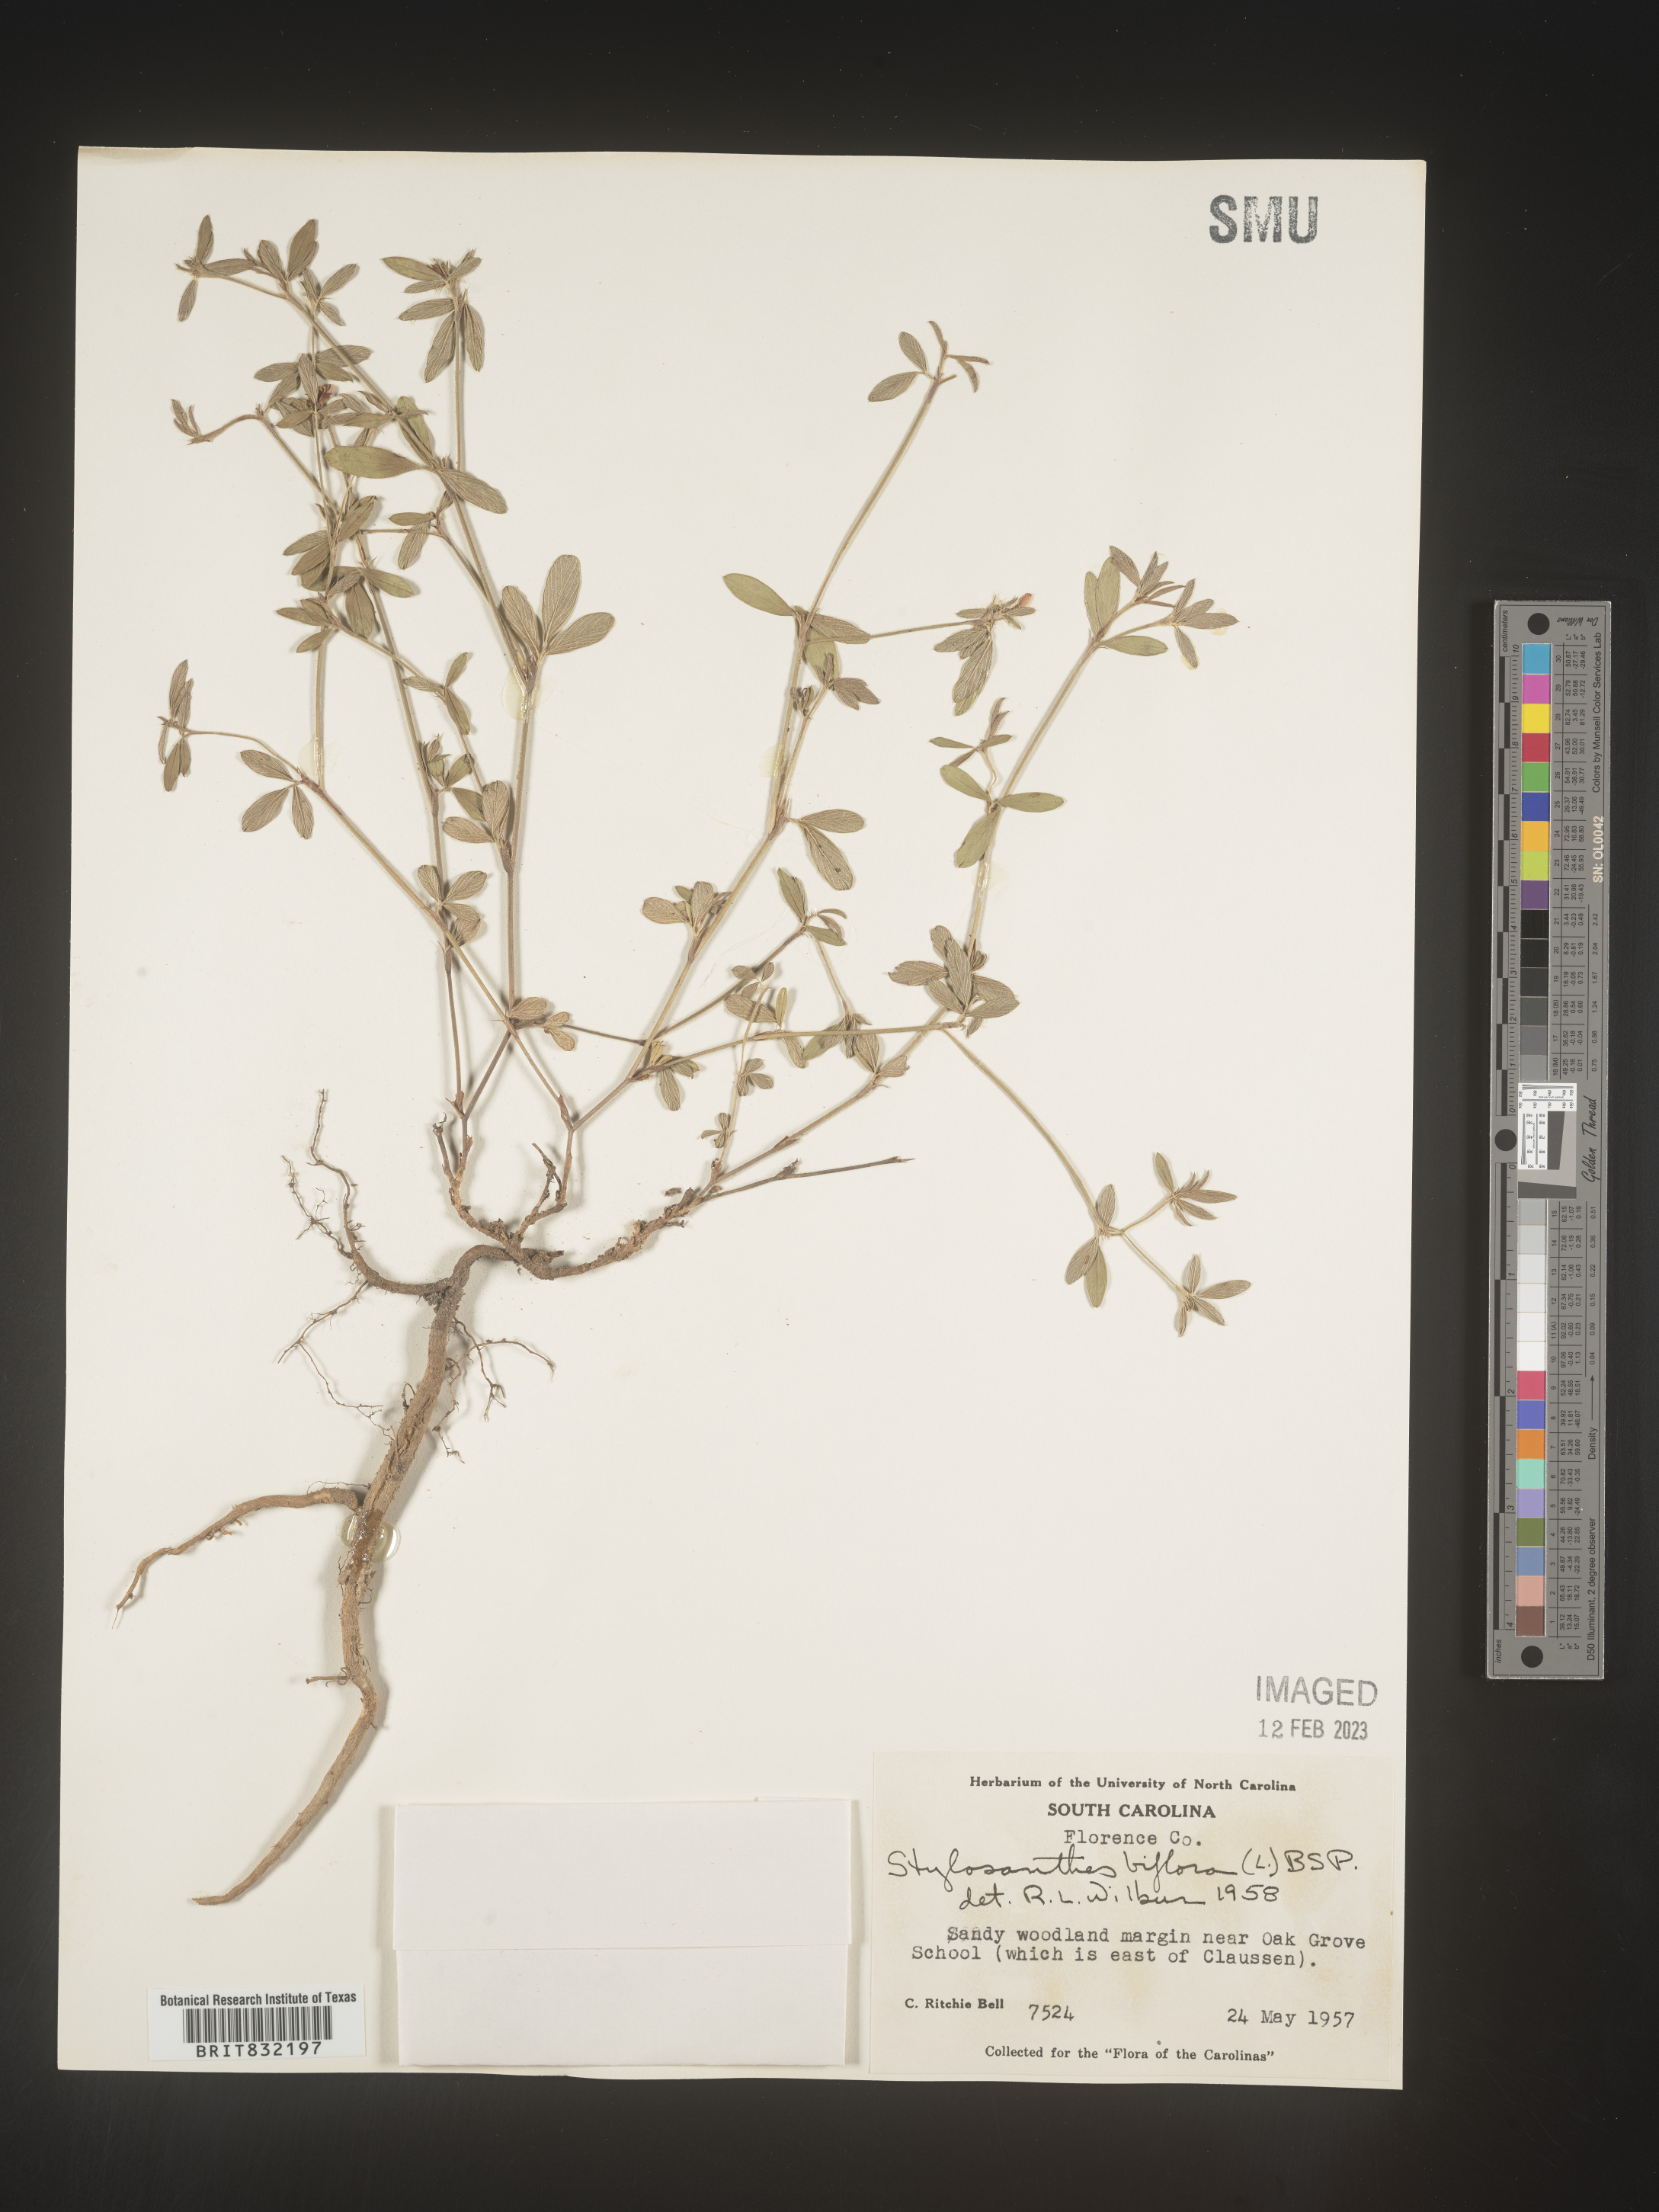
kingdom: Plantae
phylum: Tracheophyta
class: Magnoliopsida
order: Fabales
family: Fabaceae
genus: Stylosanthes
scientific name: Stylosanthes biflora
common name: Two-flower pencil-flower
